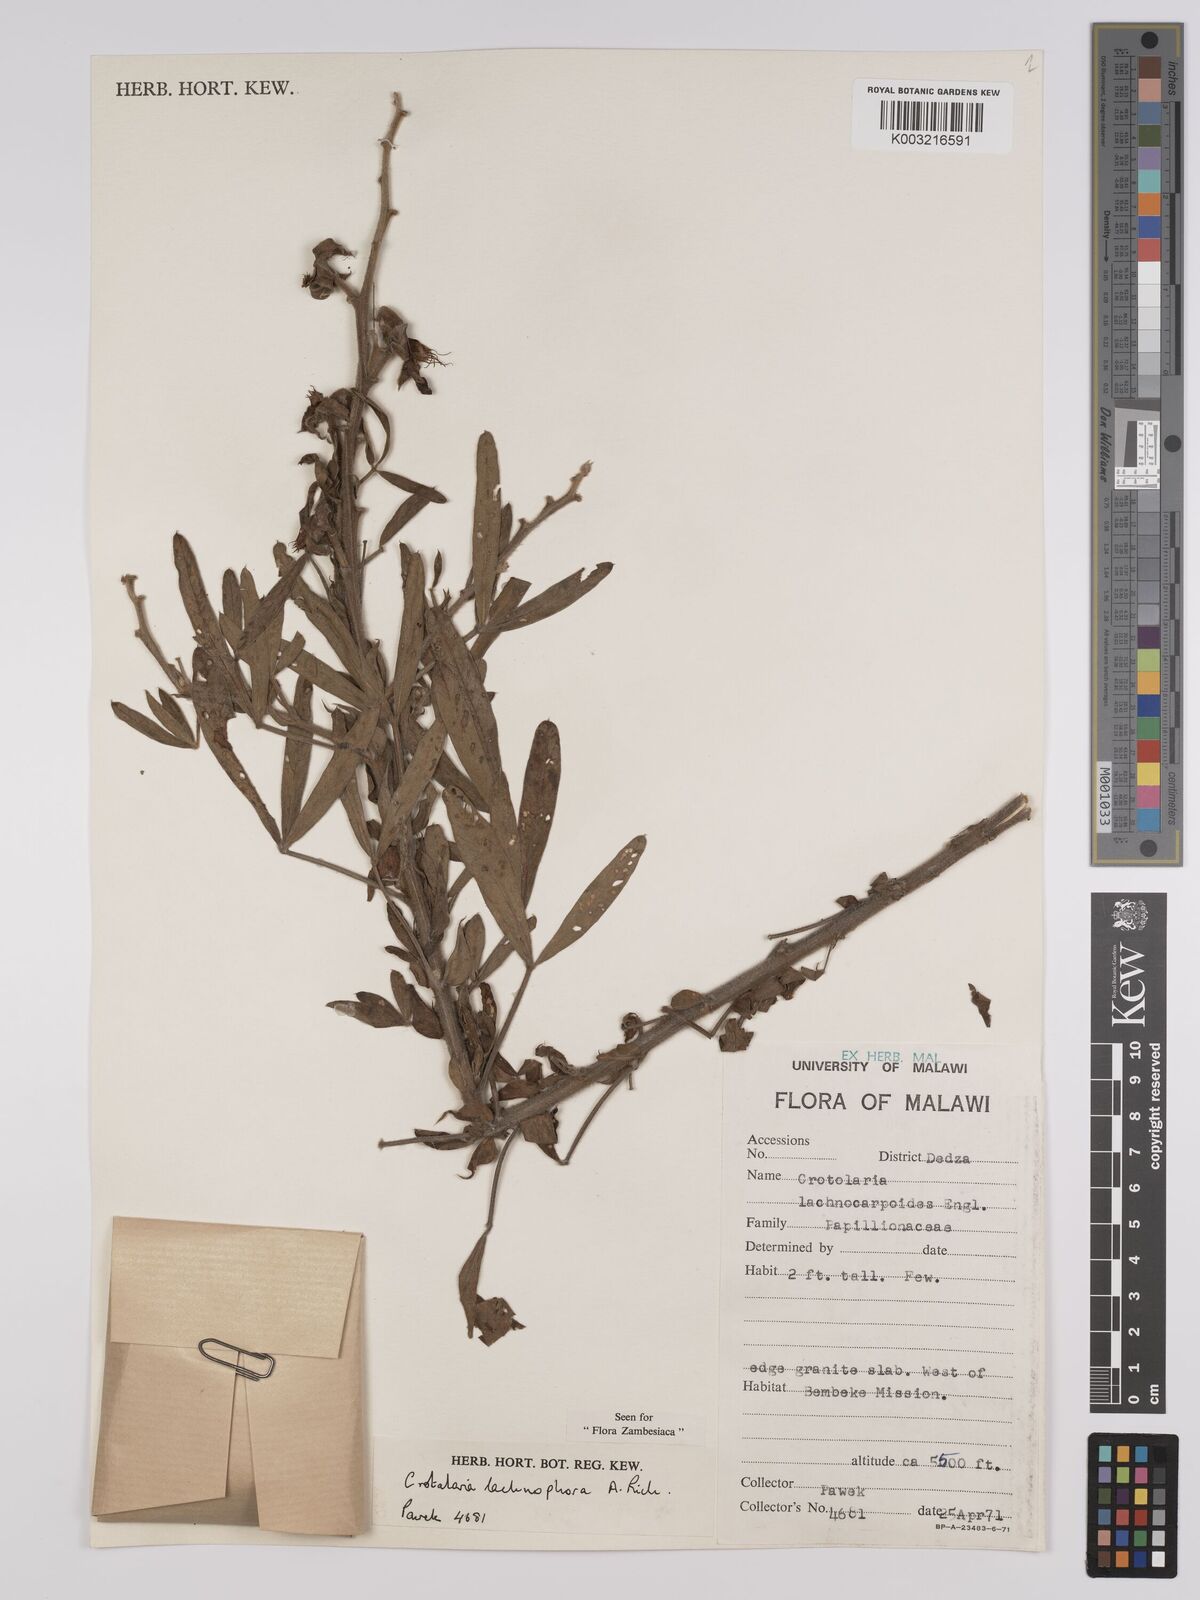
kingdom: Plantae
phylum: Tracheophyta
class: Magnoliopsida
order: Fabales
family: Fabaceae
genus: Crotalaria
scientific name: Crotalaria lachnophora
